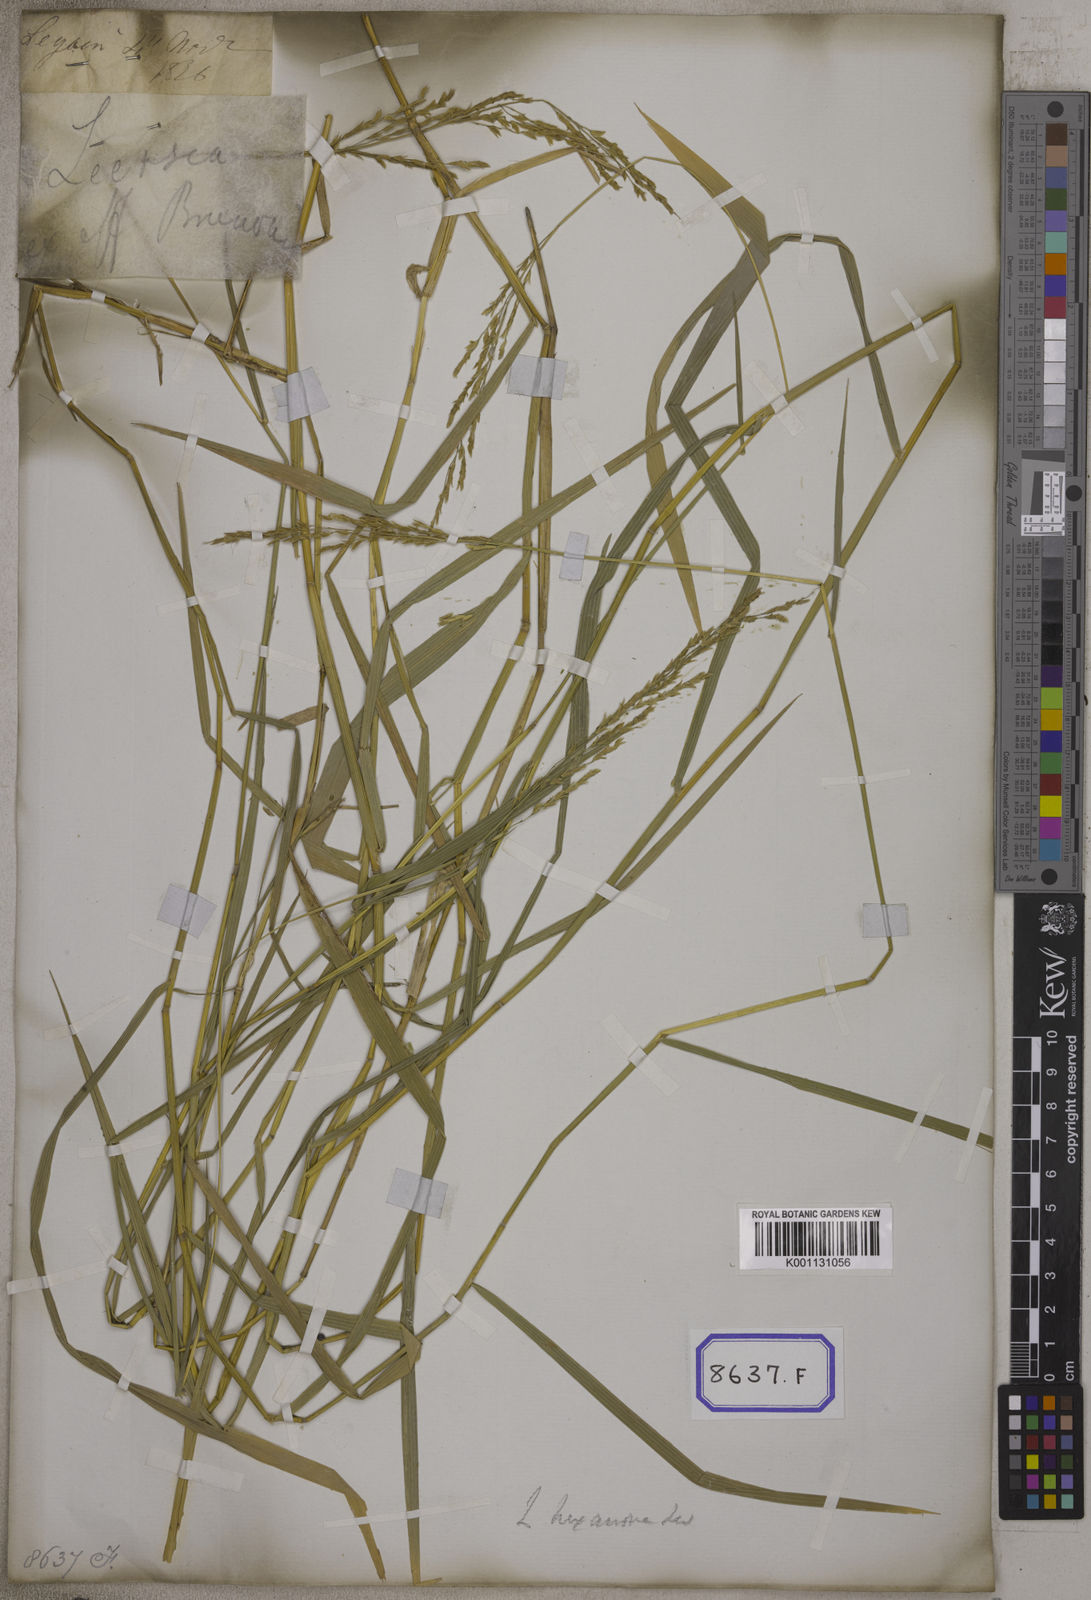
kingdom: Plantae
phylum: Tracheophyta
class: Liliopsida
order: Poales
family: Poaceae
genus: Leersia
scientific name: Leersia oryzoides
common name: Cut-grass
